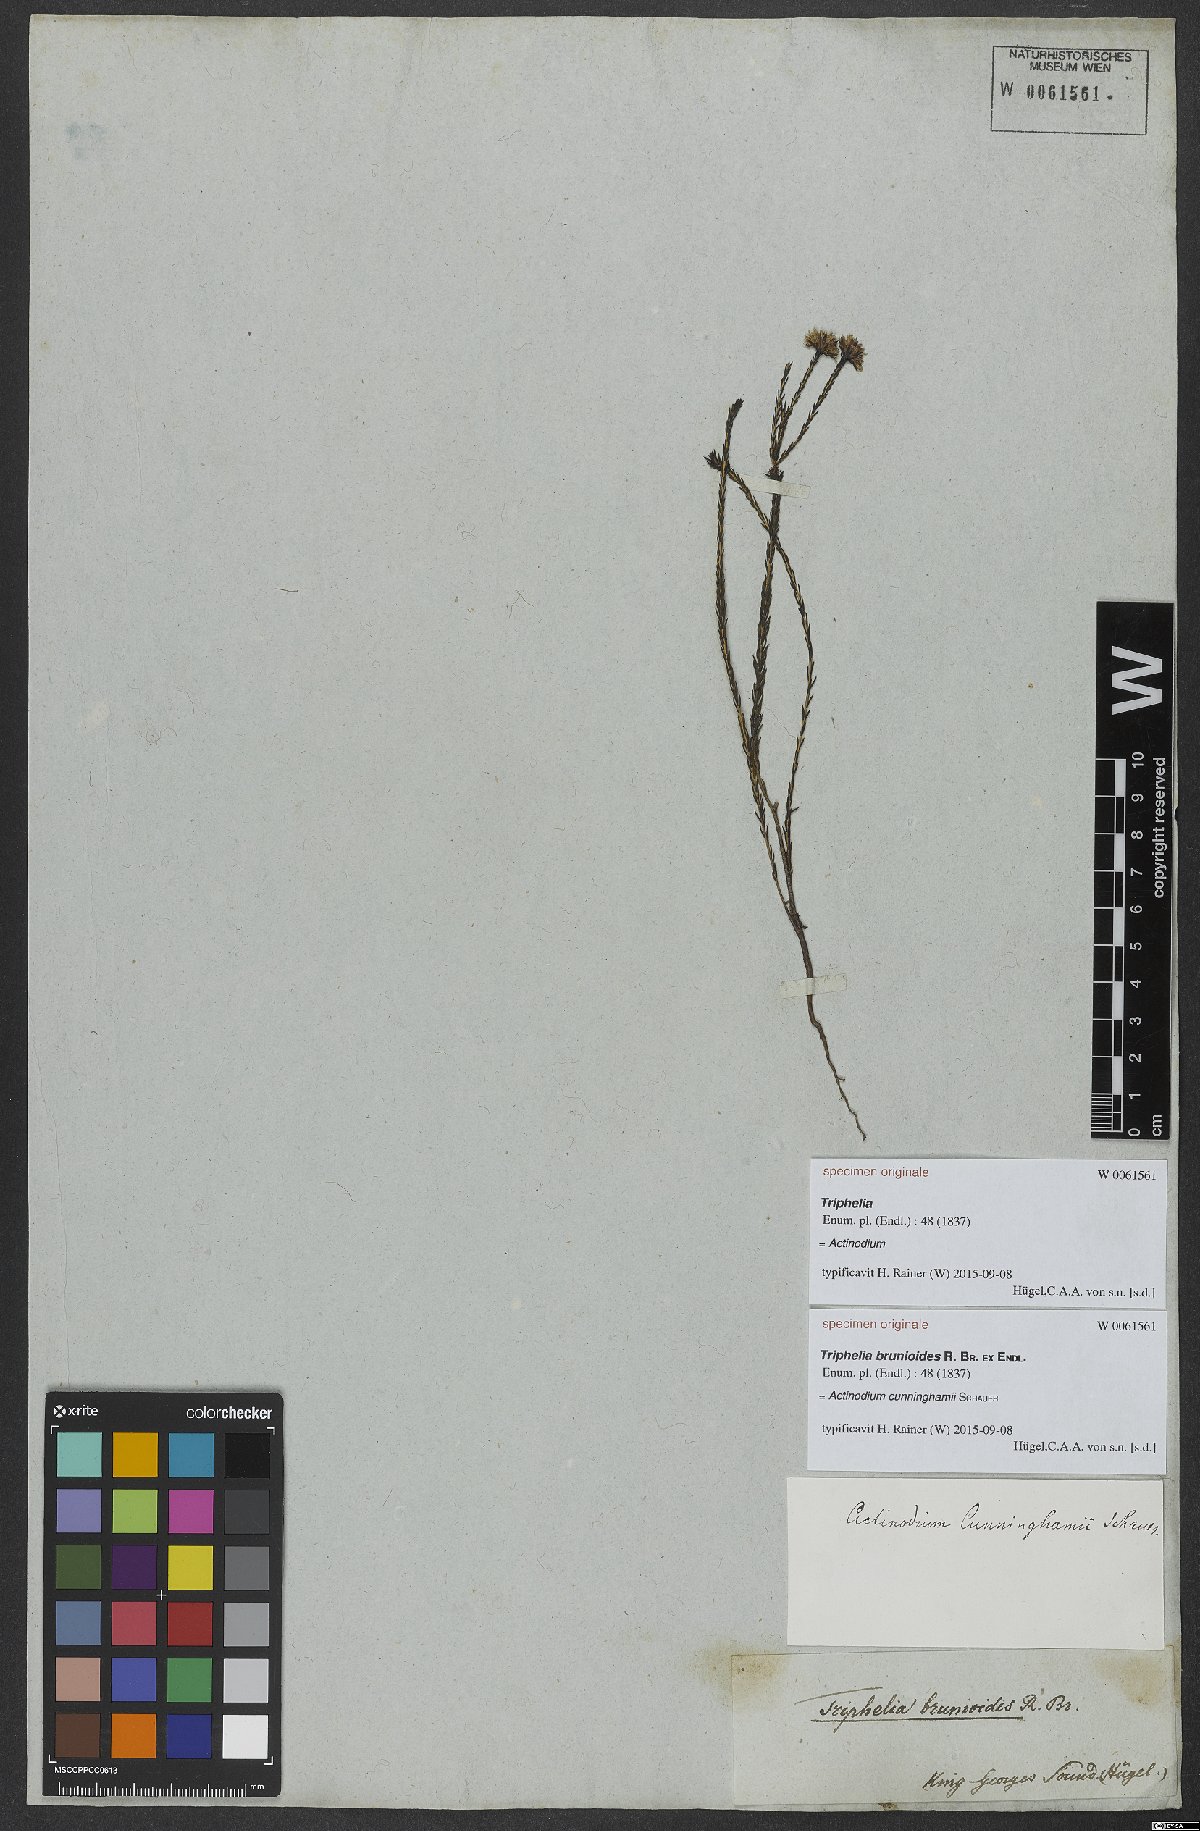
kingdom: Plantae
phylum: Tracheophyta
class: Magnoliopsida
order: Myrtales
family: Myrtaceae
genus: Actinodium
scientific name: Actinodium cunninghamii
